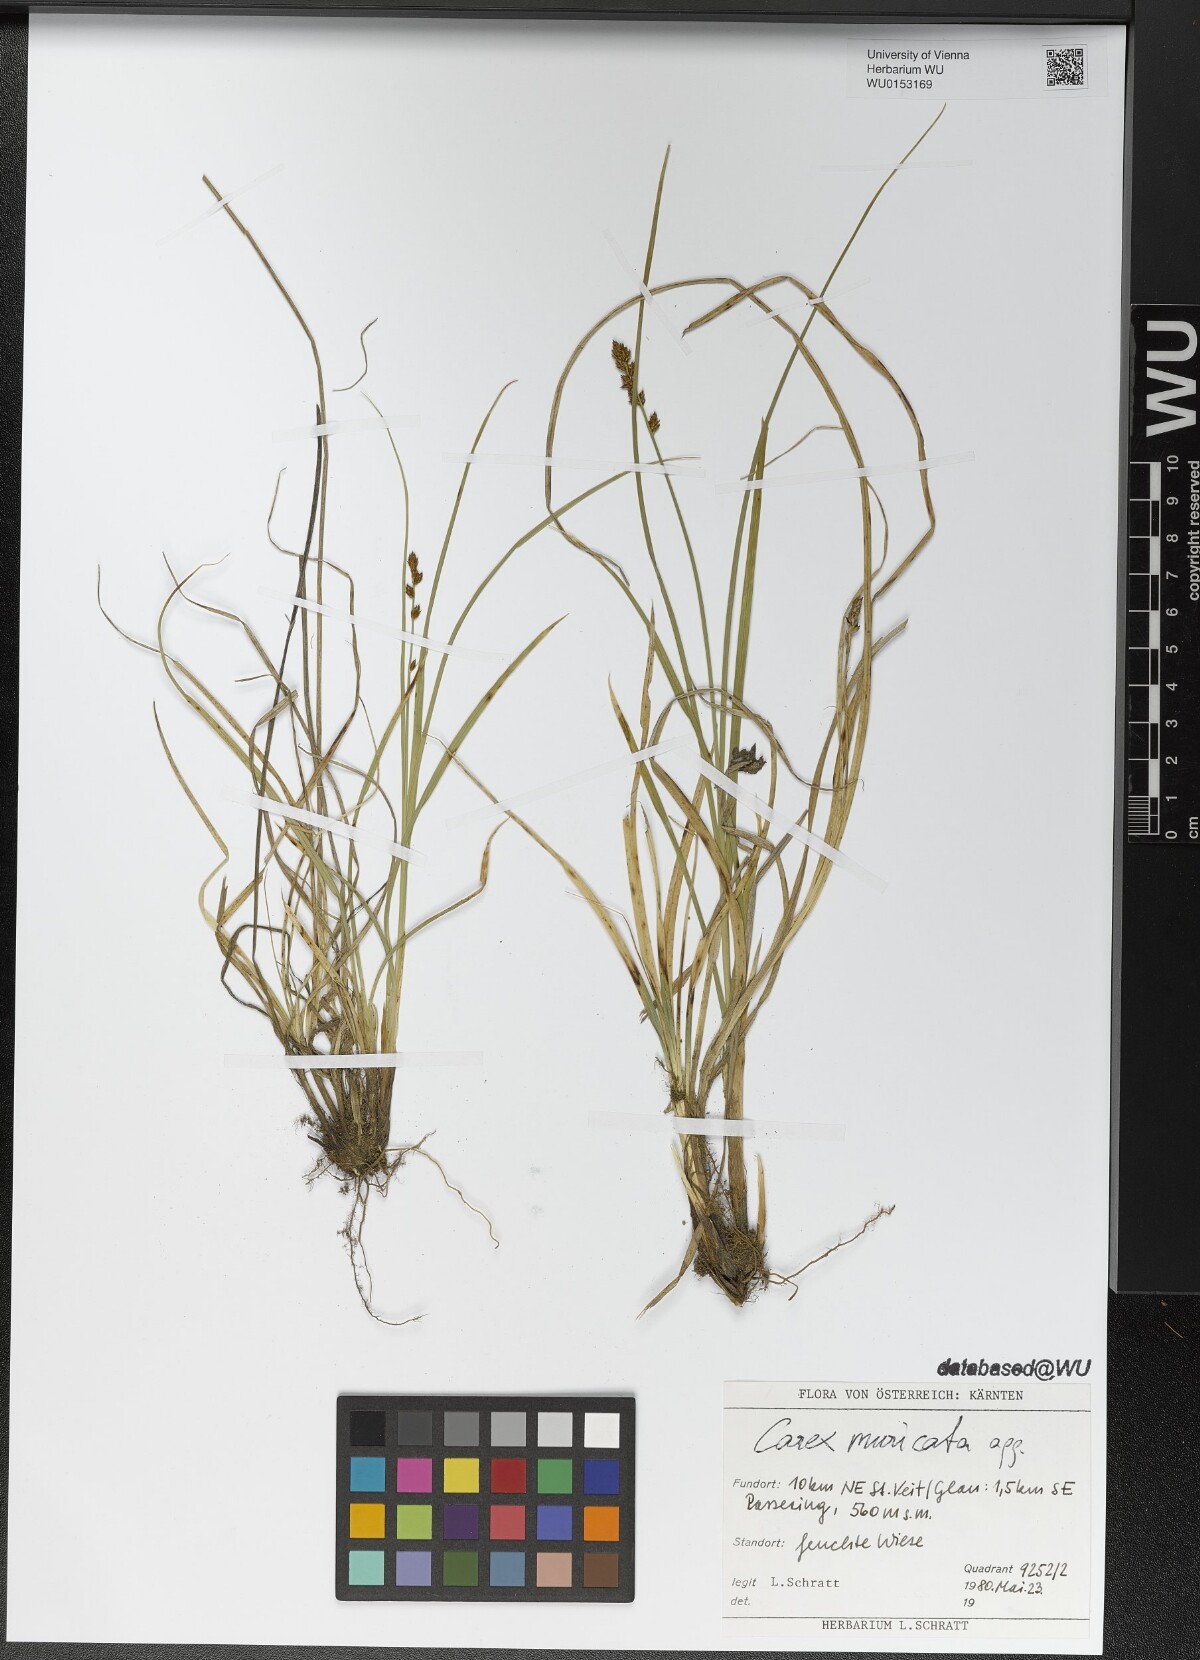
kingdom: Plantae
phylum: Tracheophyta
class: Liliopsida
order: Poales
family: Cyperaceae
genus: Carex
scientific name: Carex muricata
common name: Rough sedge
